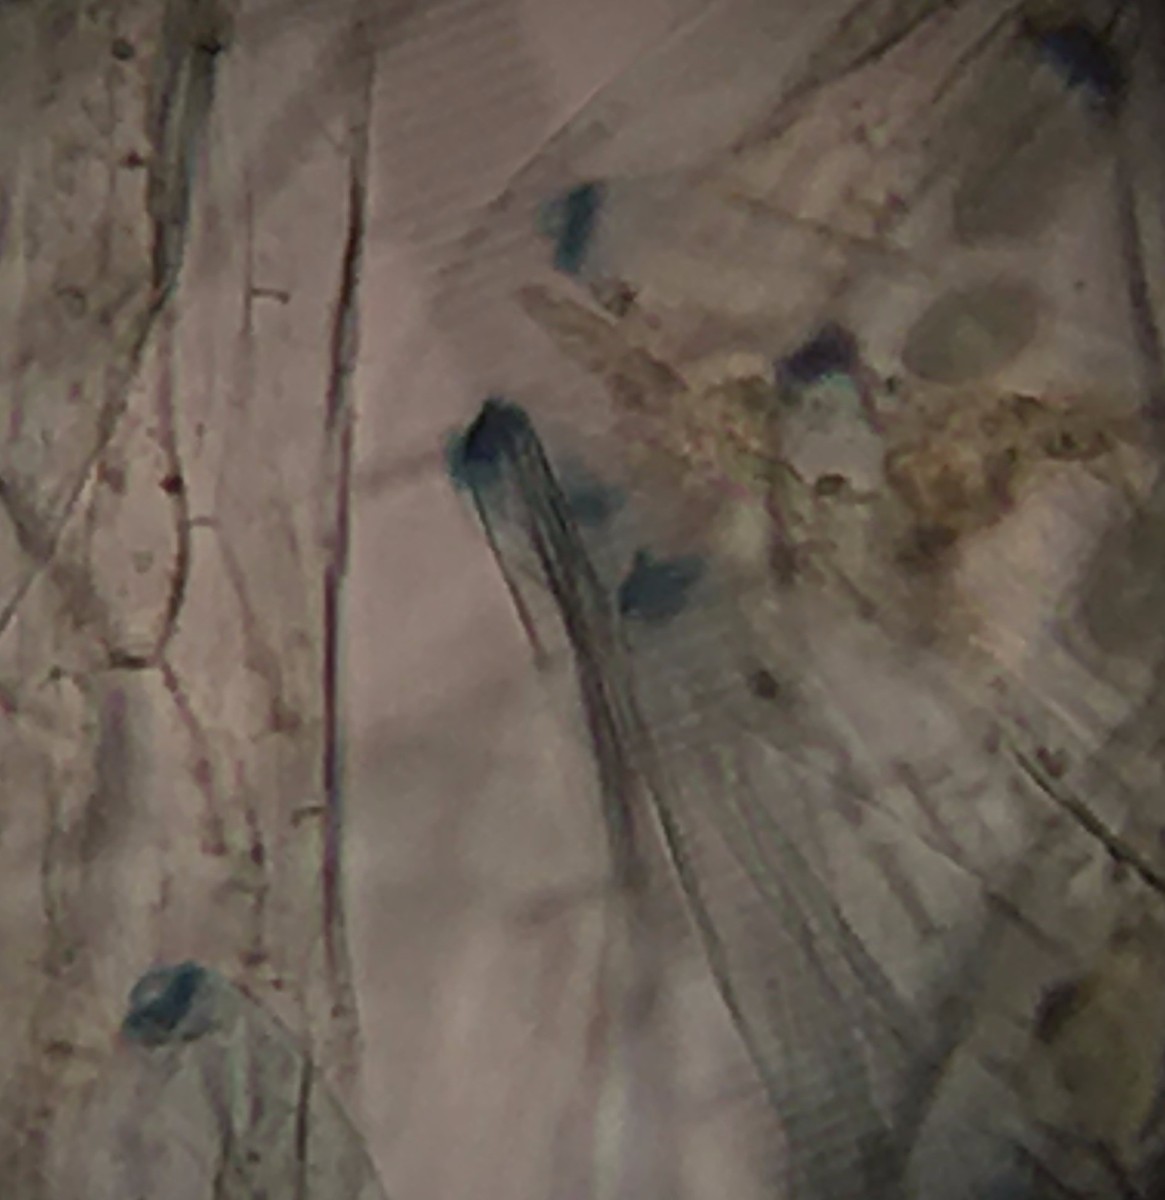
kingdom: Fungi
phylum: Ascomycota
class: Pezizomycetes
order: Pezizales
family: Pezizaceae
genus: Peziza
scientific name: Peziza fimeti
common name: møg-bægersvamp
